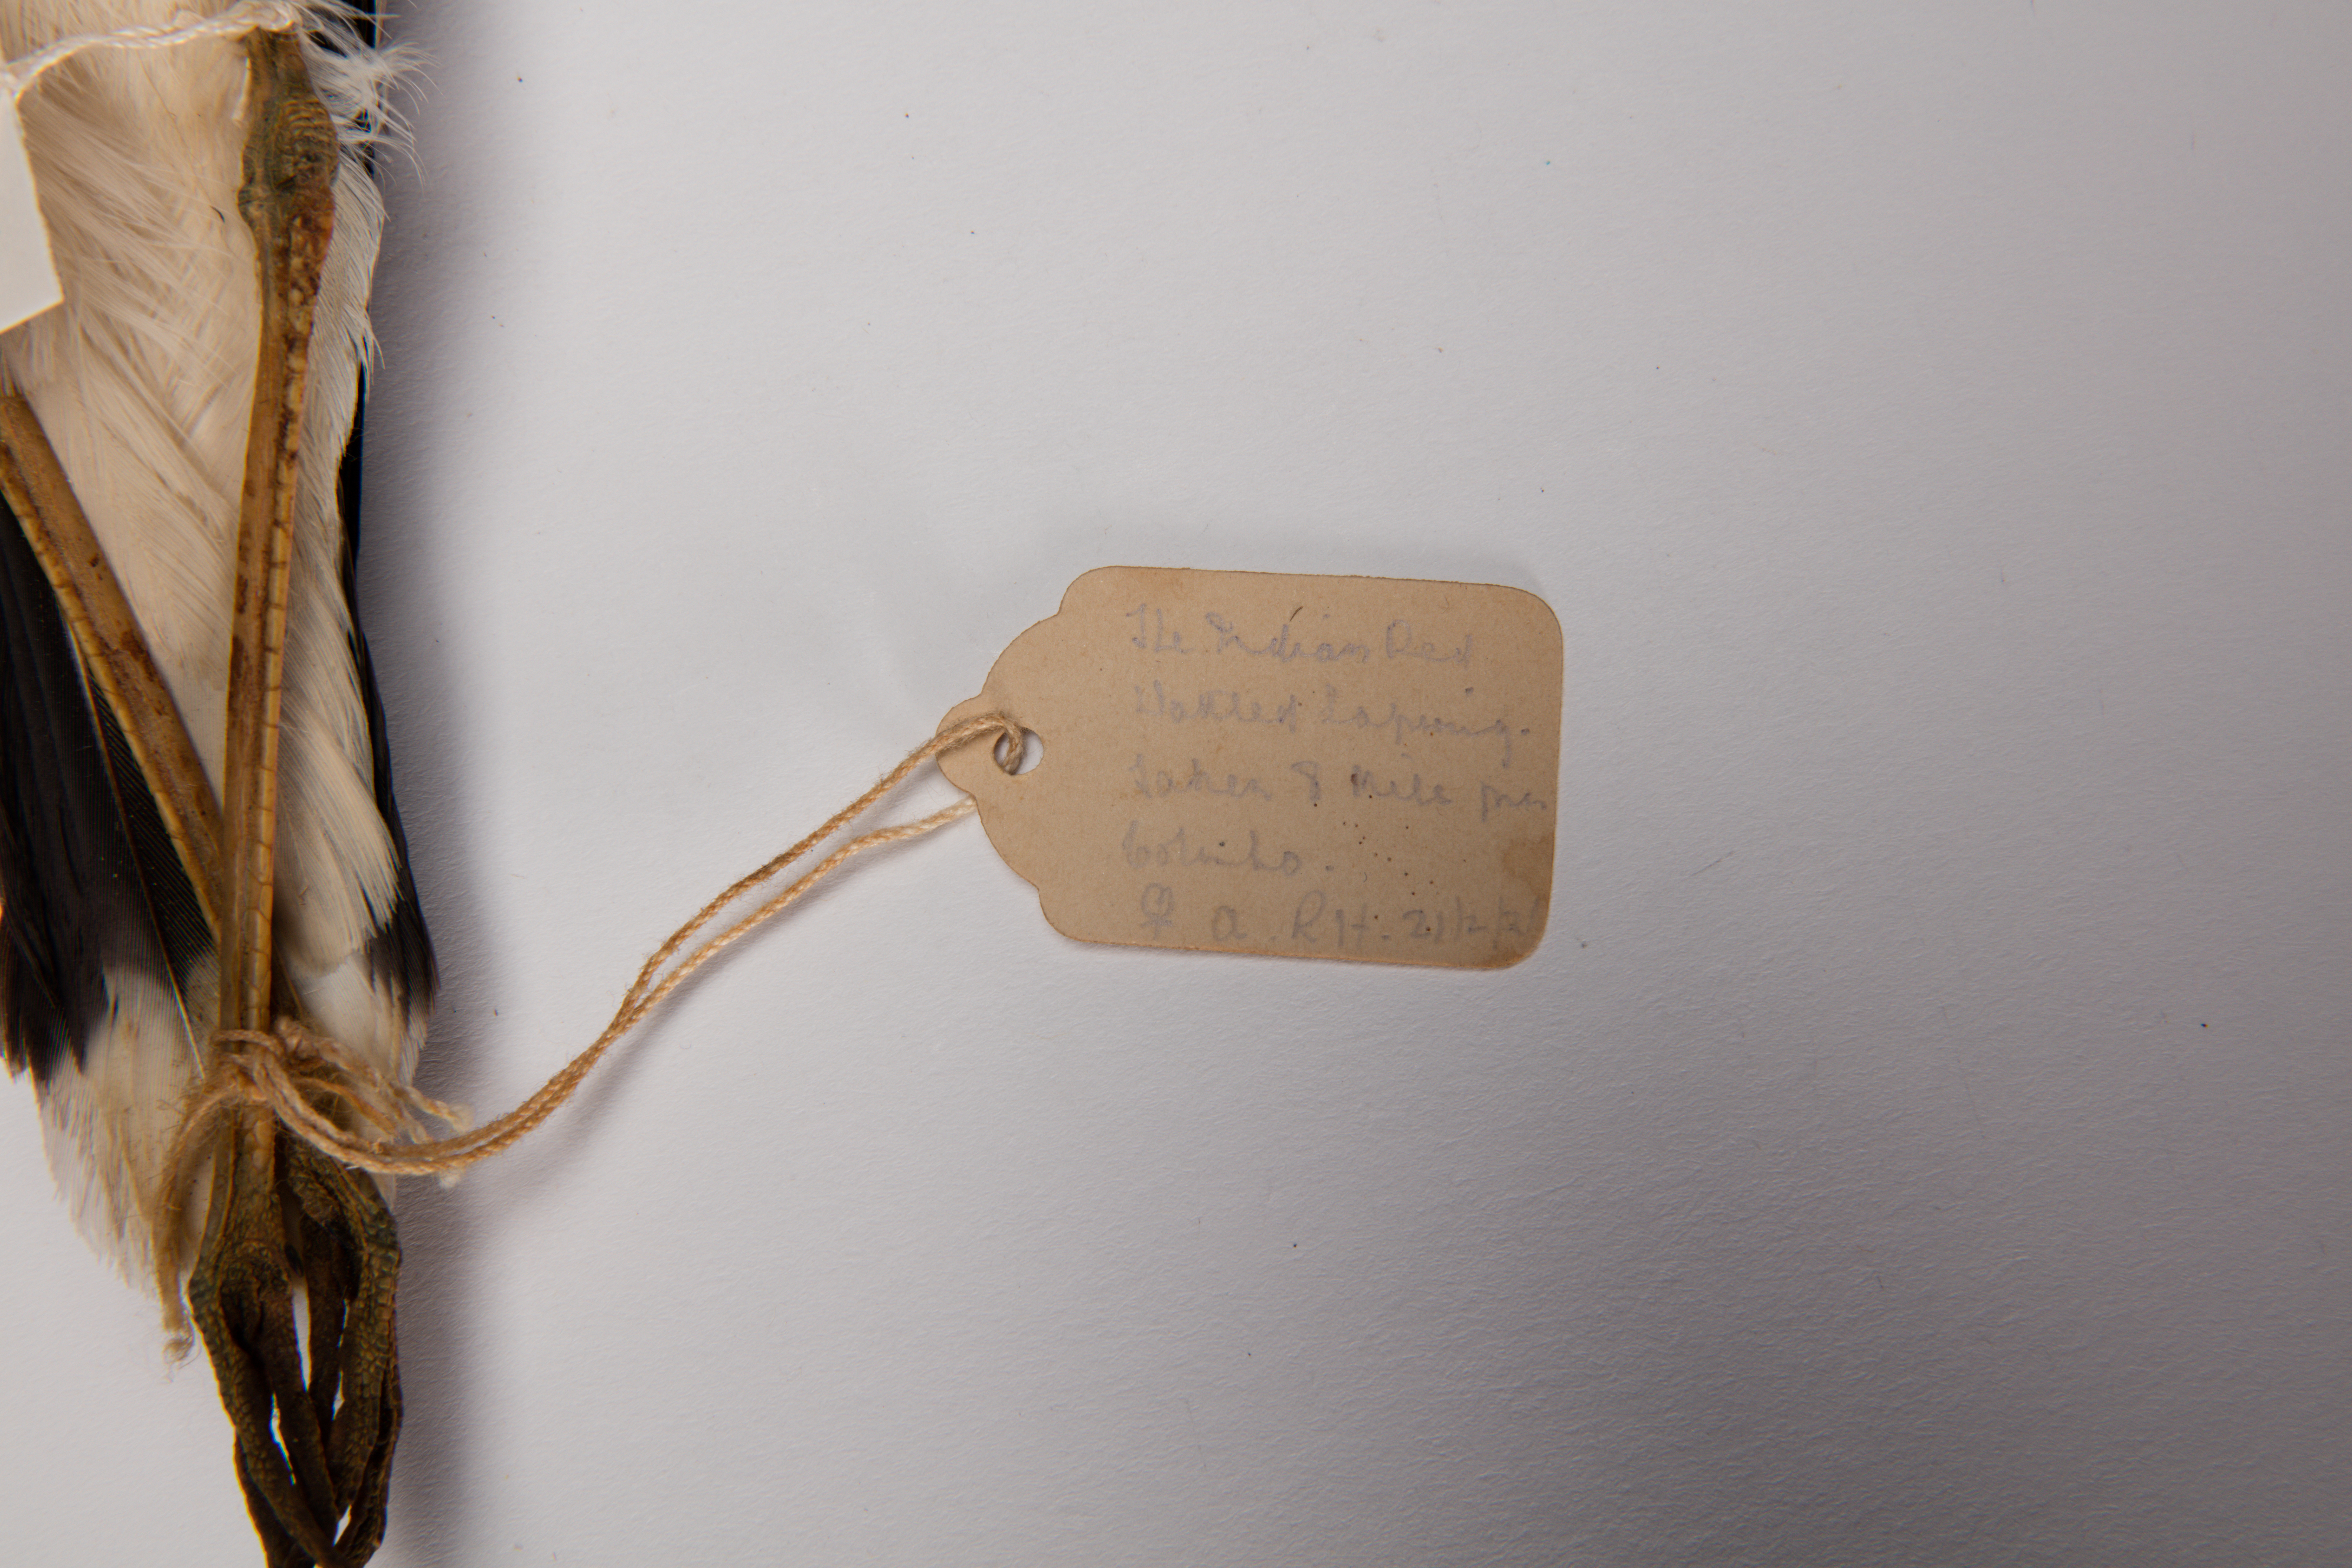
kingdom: Animalia
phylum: Chordata
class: Aves
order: Charadriiformes
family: Charadriidae
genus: Vanellus
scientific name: Vanellus indicus
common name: Red-wattled lapwing
